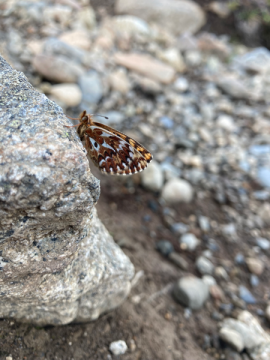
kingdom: Animalia
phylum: Arthropoda
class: Insecta
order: Lepidoptera
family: Nymphalidae
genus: Boloria
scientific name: Boloria freija
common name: Freija Fritillary
